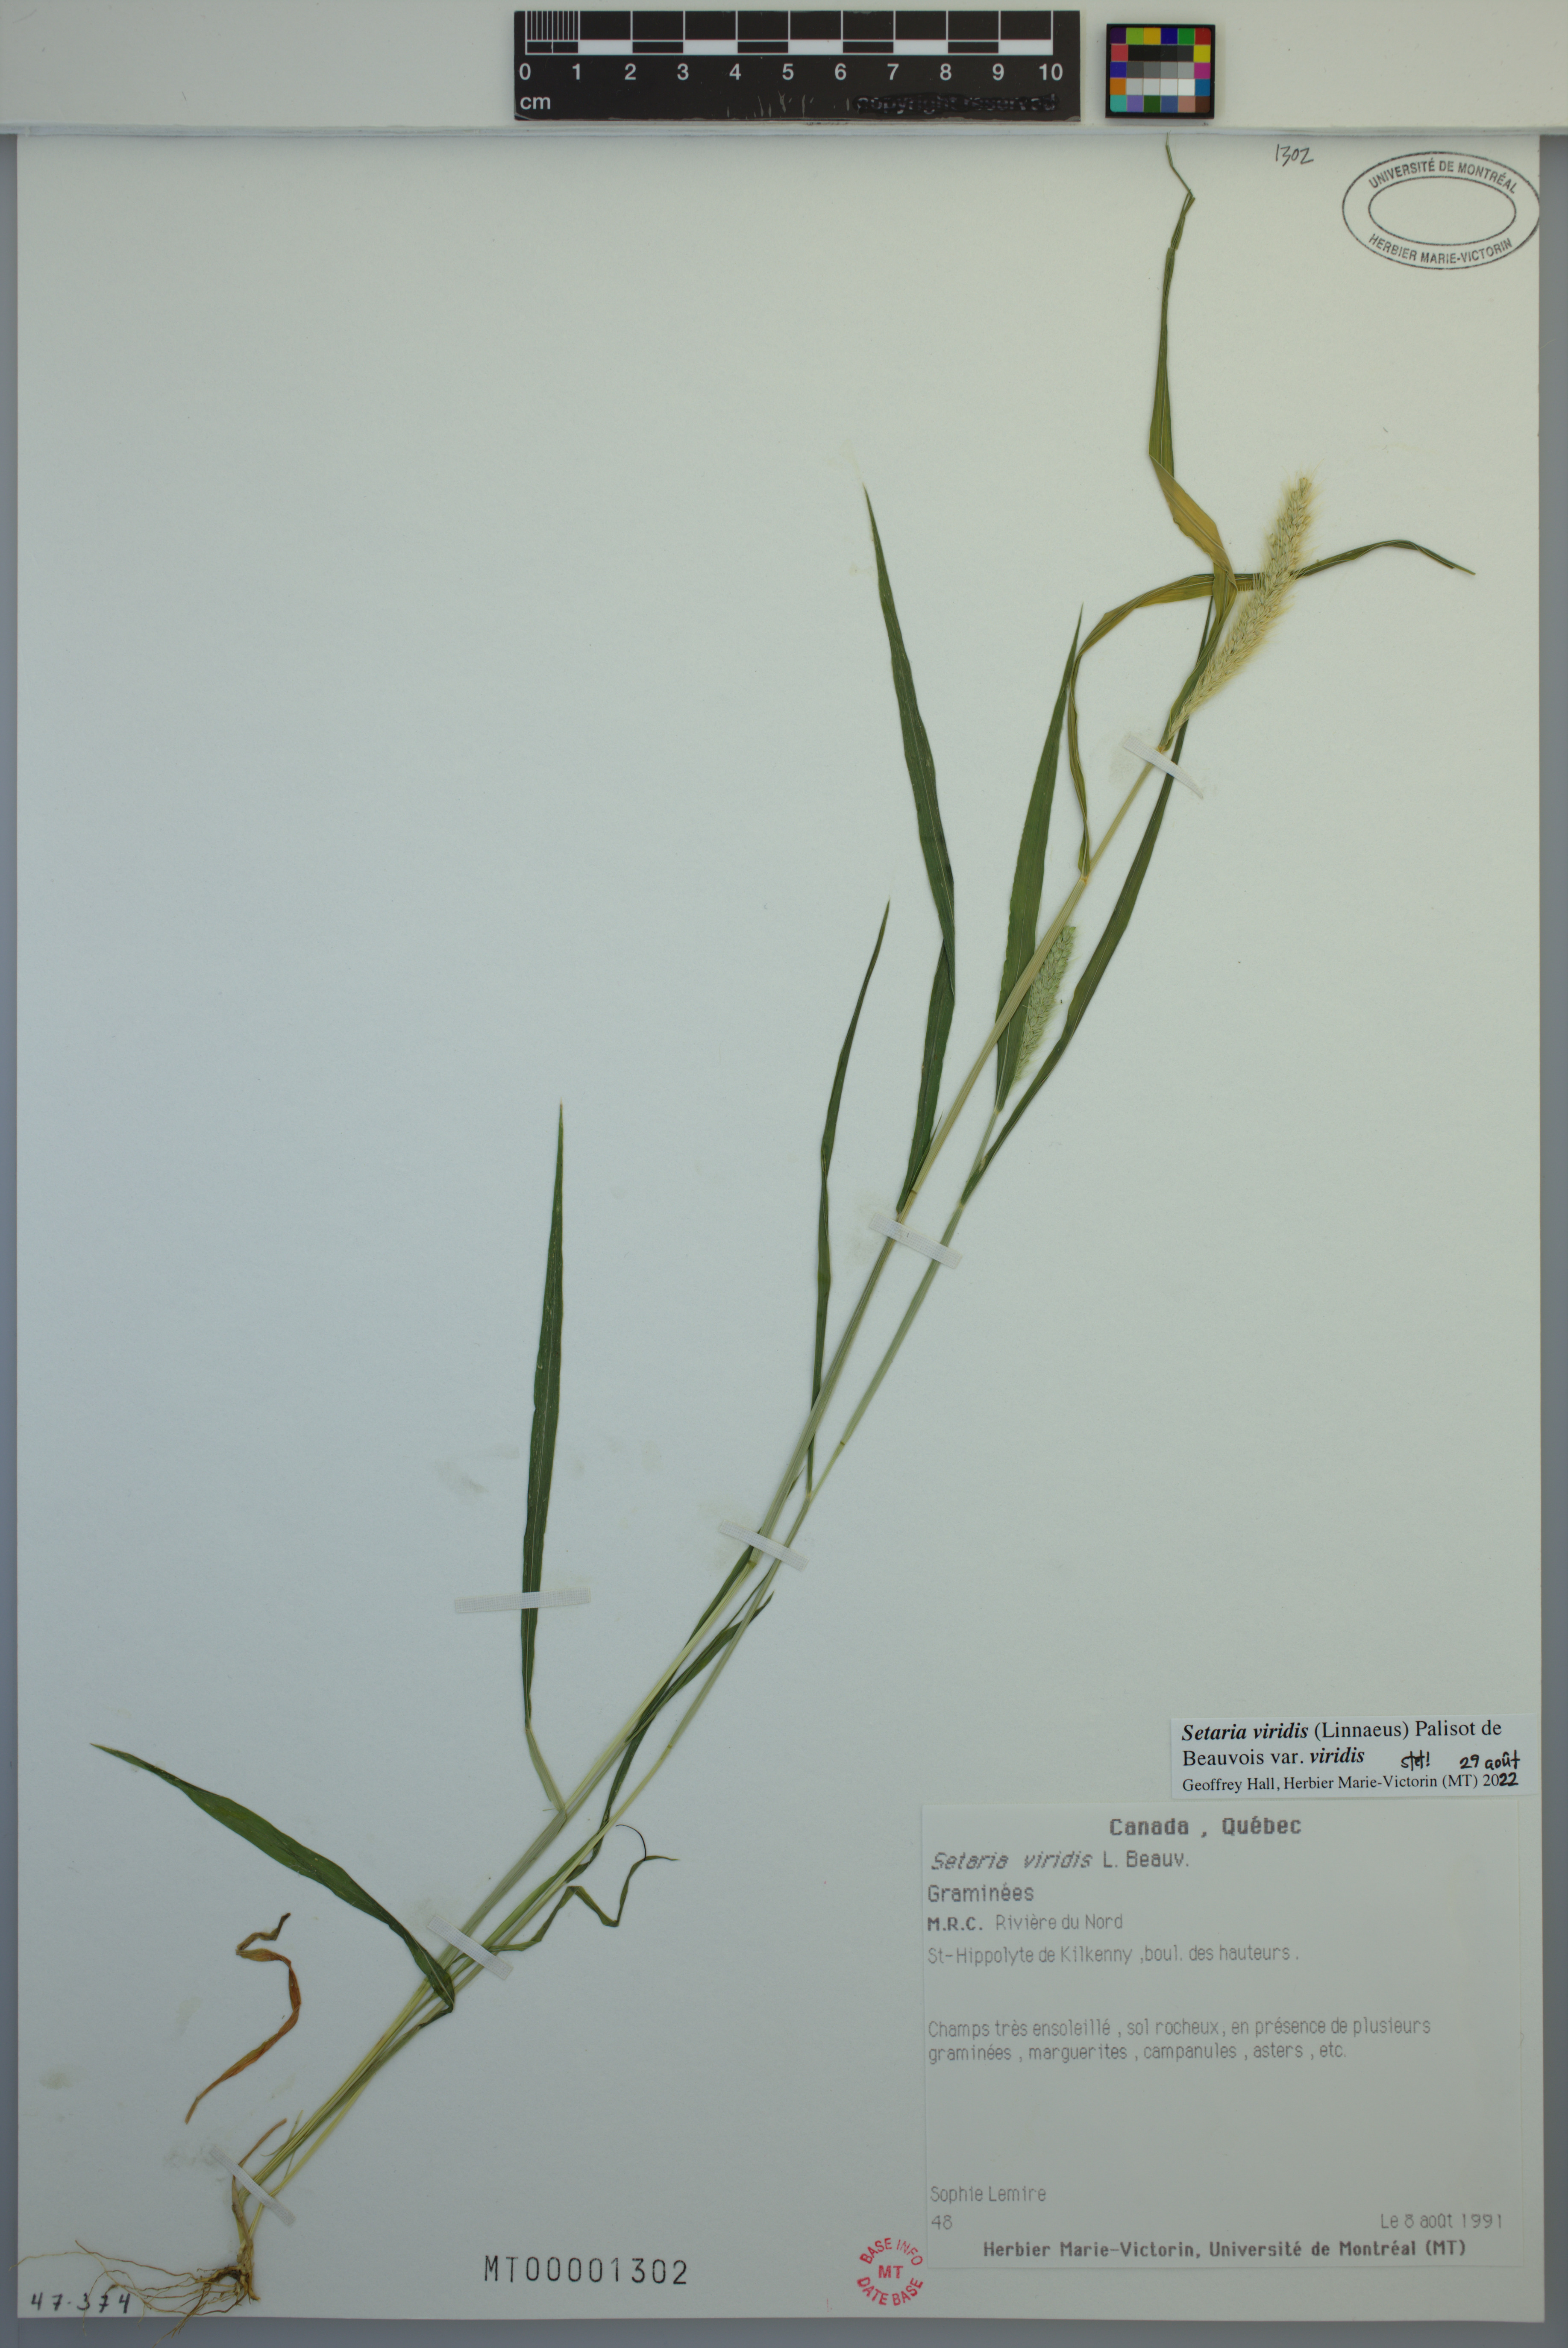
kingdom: Plantae
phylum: Tracheophyta
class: Liliopsida
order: Poales
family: Poaceae
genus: Setaria
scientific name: Setaria viridis
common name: Green bristlegrass
